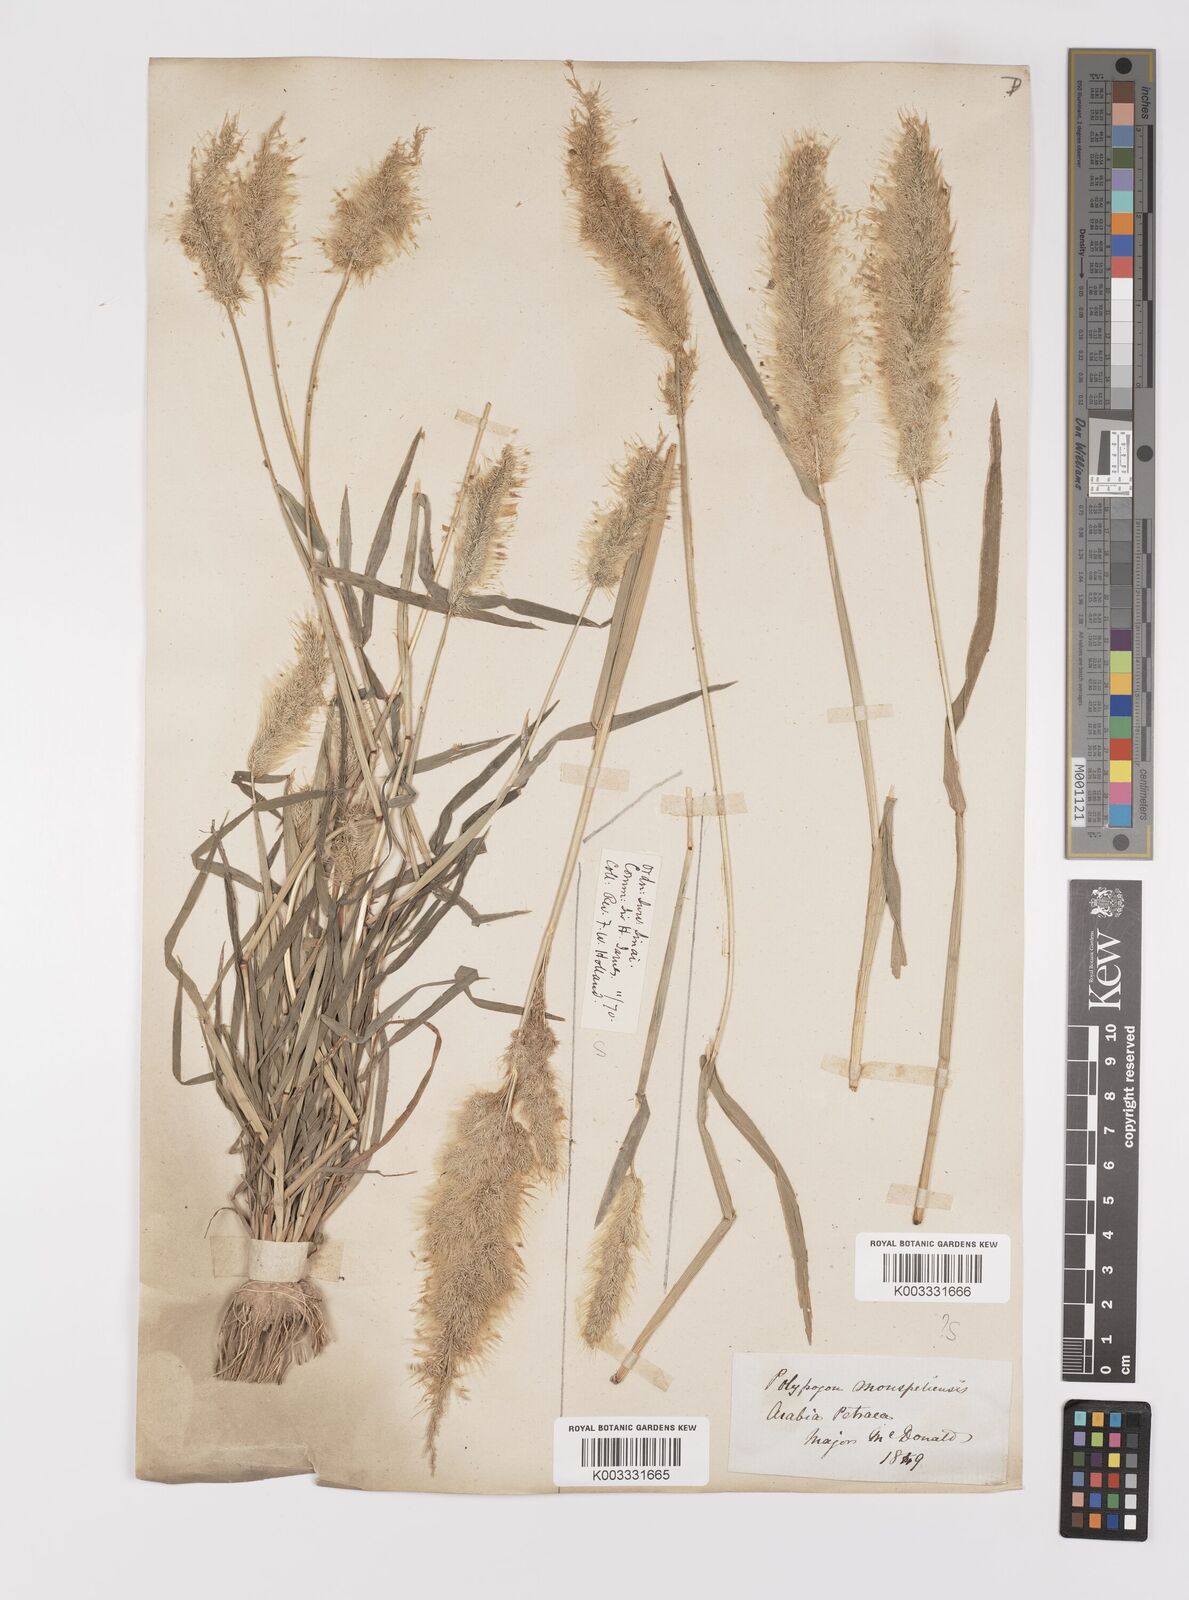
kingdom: Plantae
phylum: Tracheophyta
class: Liliopsida
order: Poales
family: Poaceae
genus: Polypogon
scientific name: Polypogon monspeliensis
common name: Annual rabbitsfoot grass
